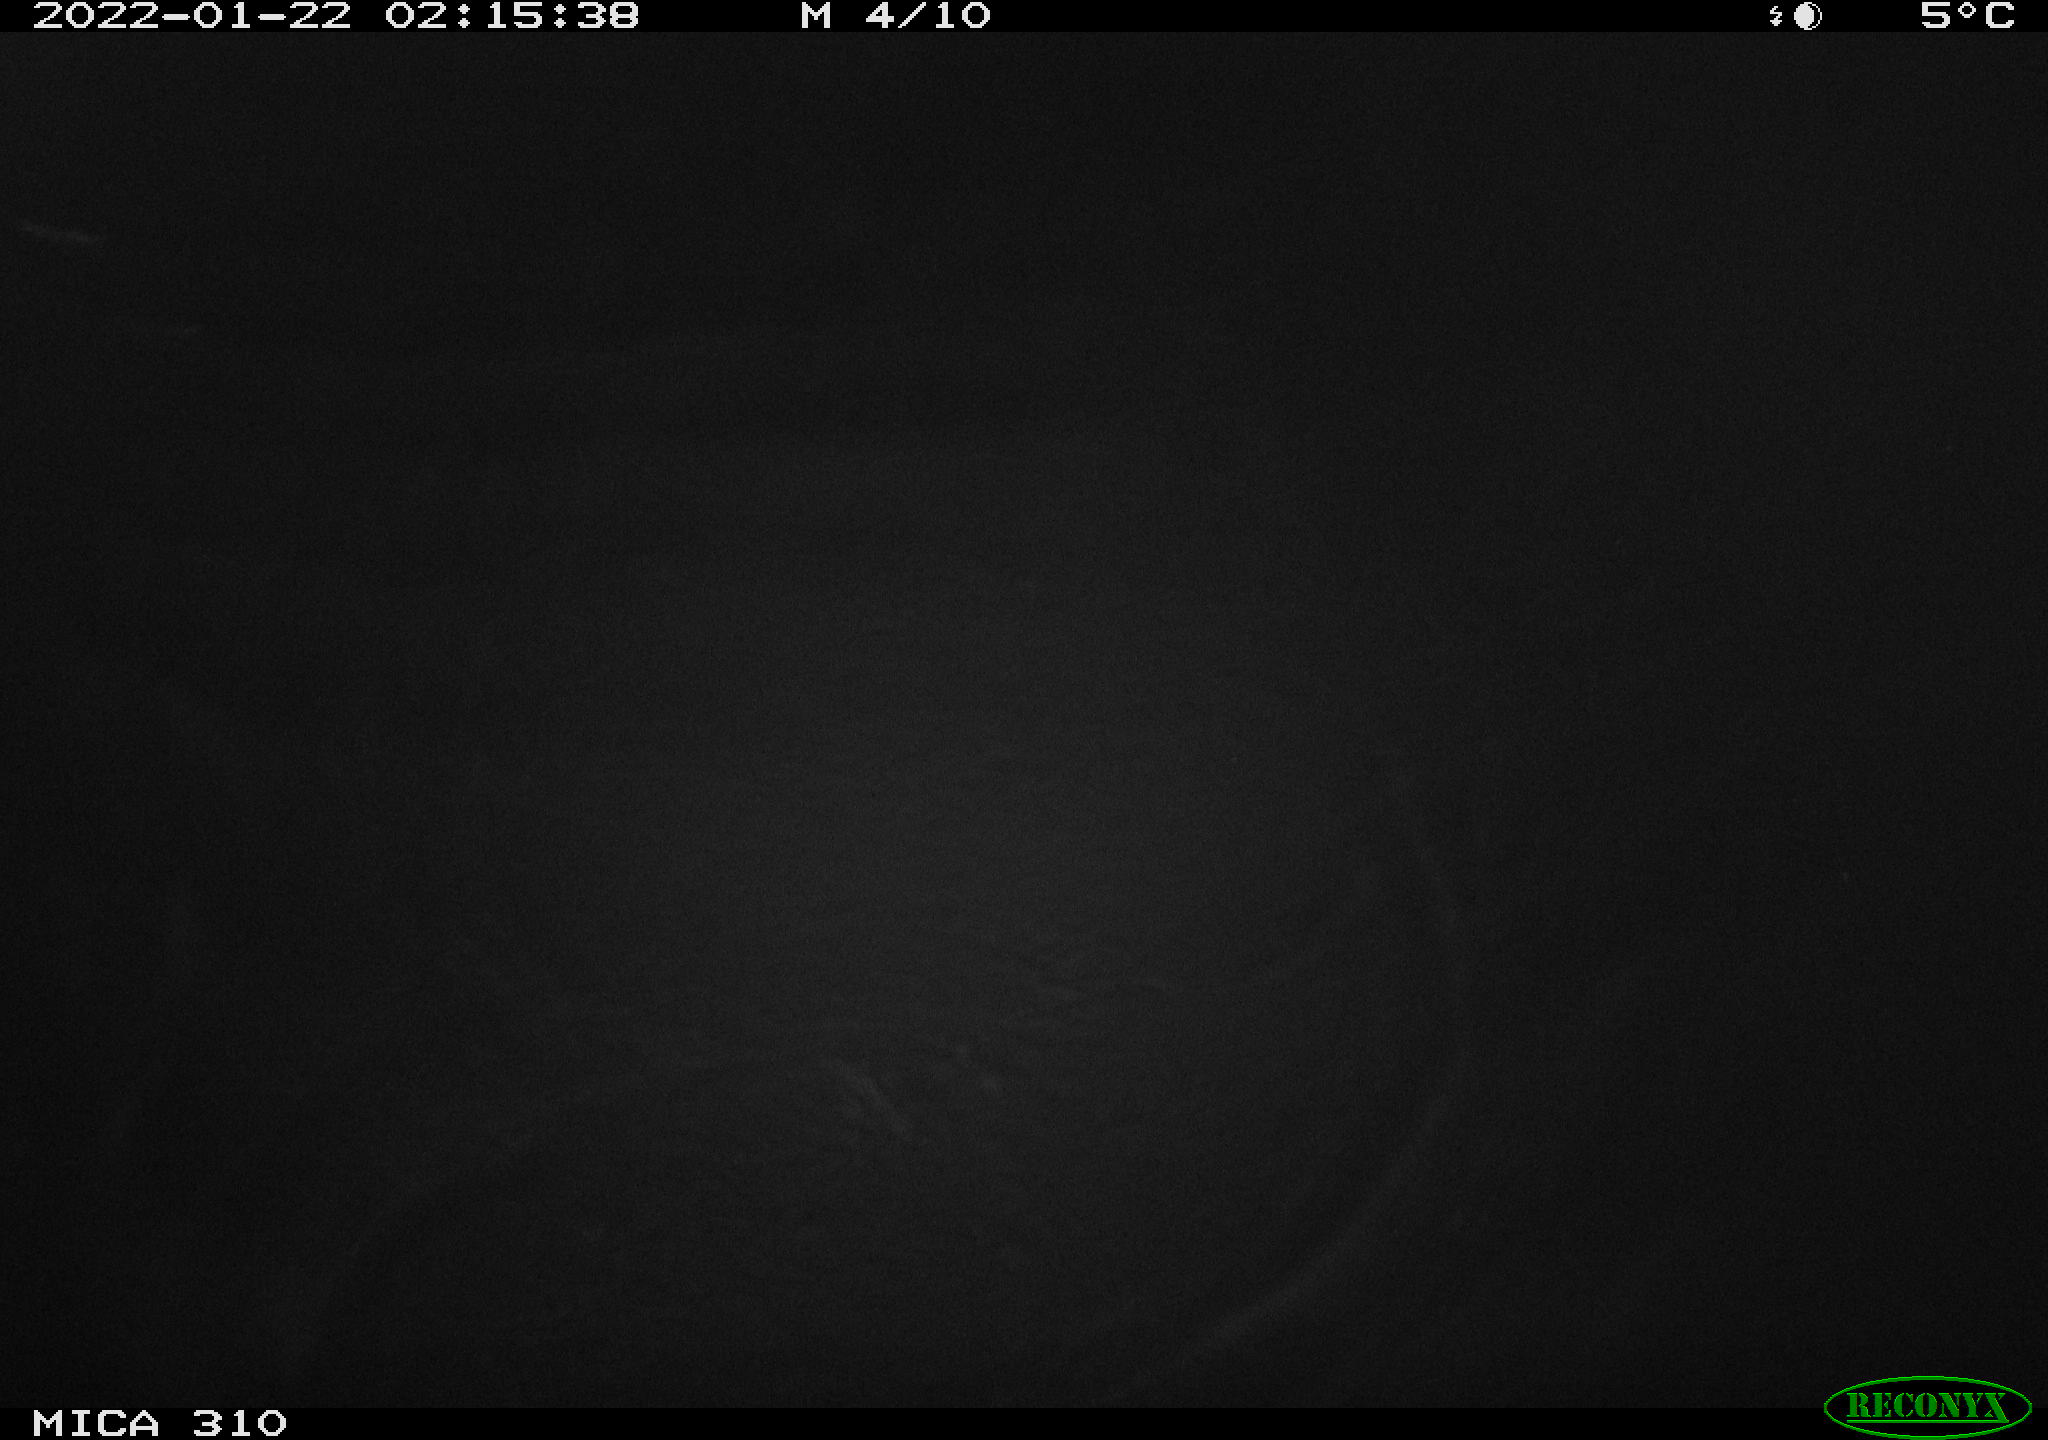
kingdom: Animalia
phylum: Chordata
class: Mammalia
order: Rodentia
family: Cricetidae
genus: Ondatra
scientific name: Ondatra zibethicus
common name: Muskrat
